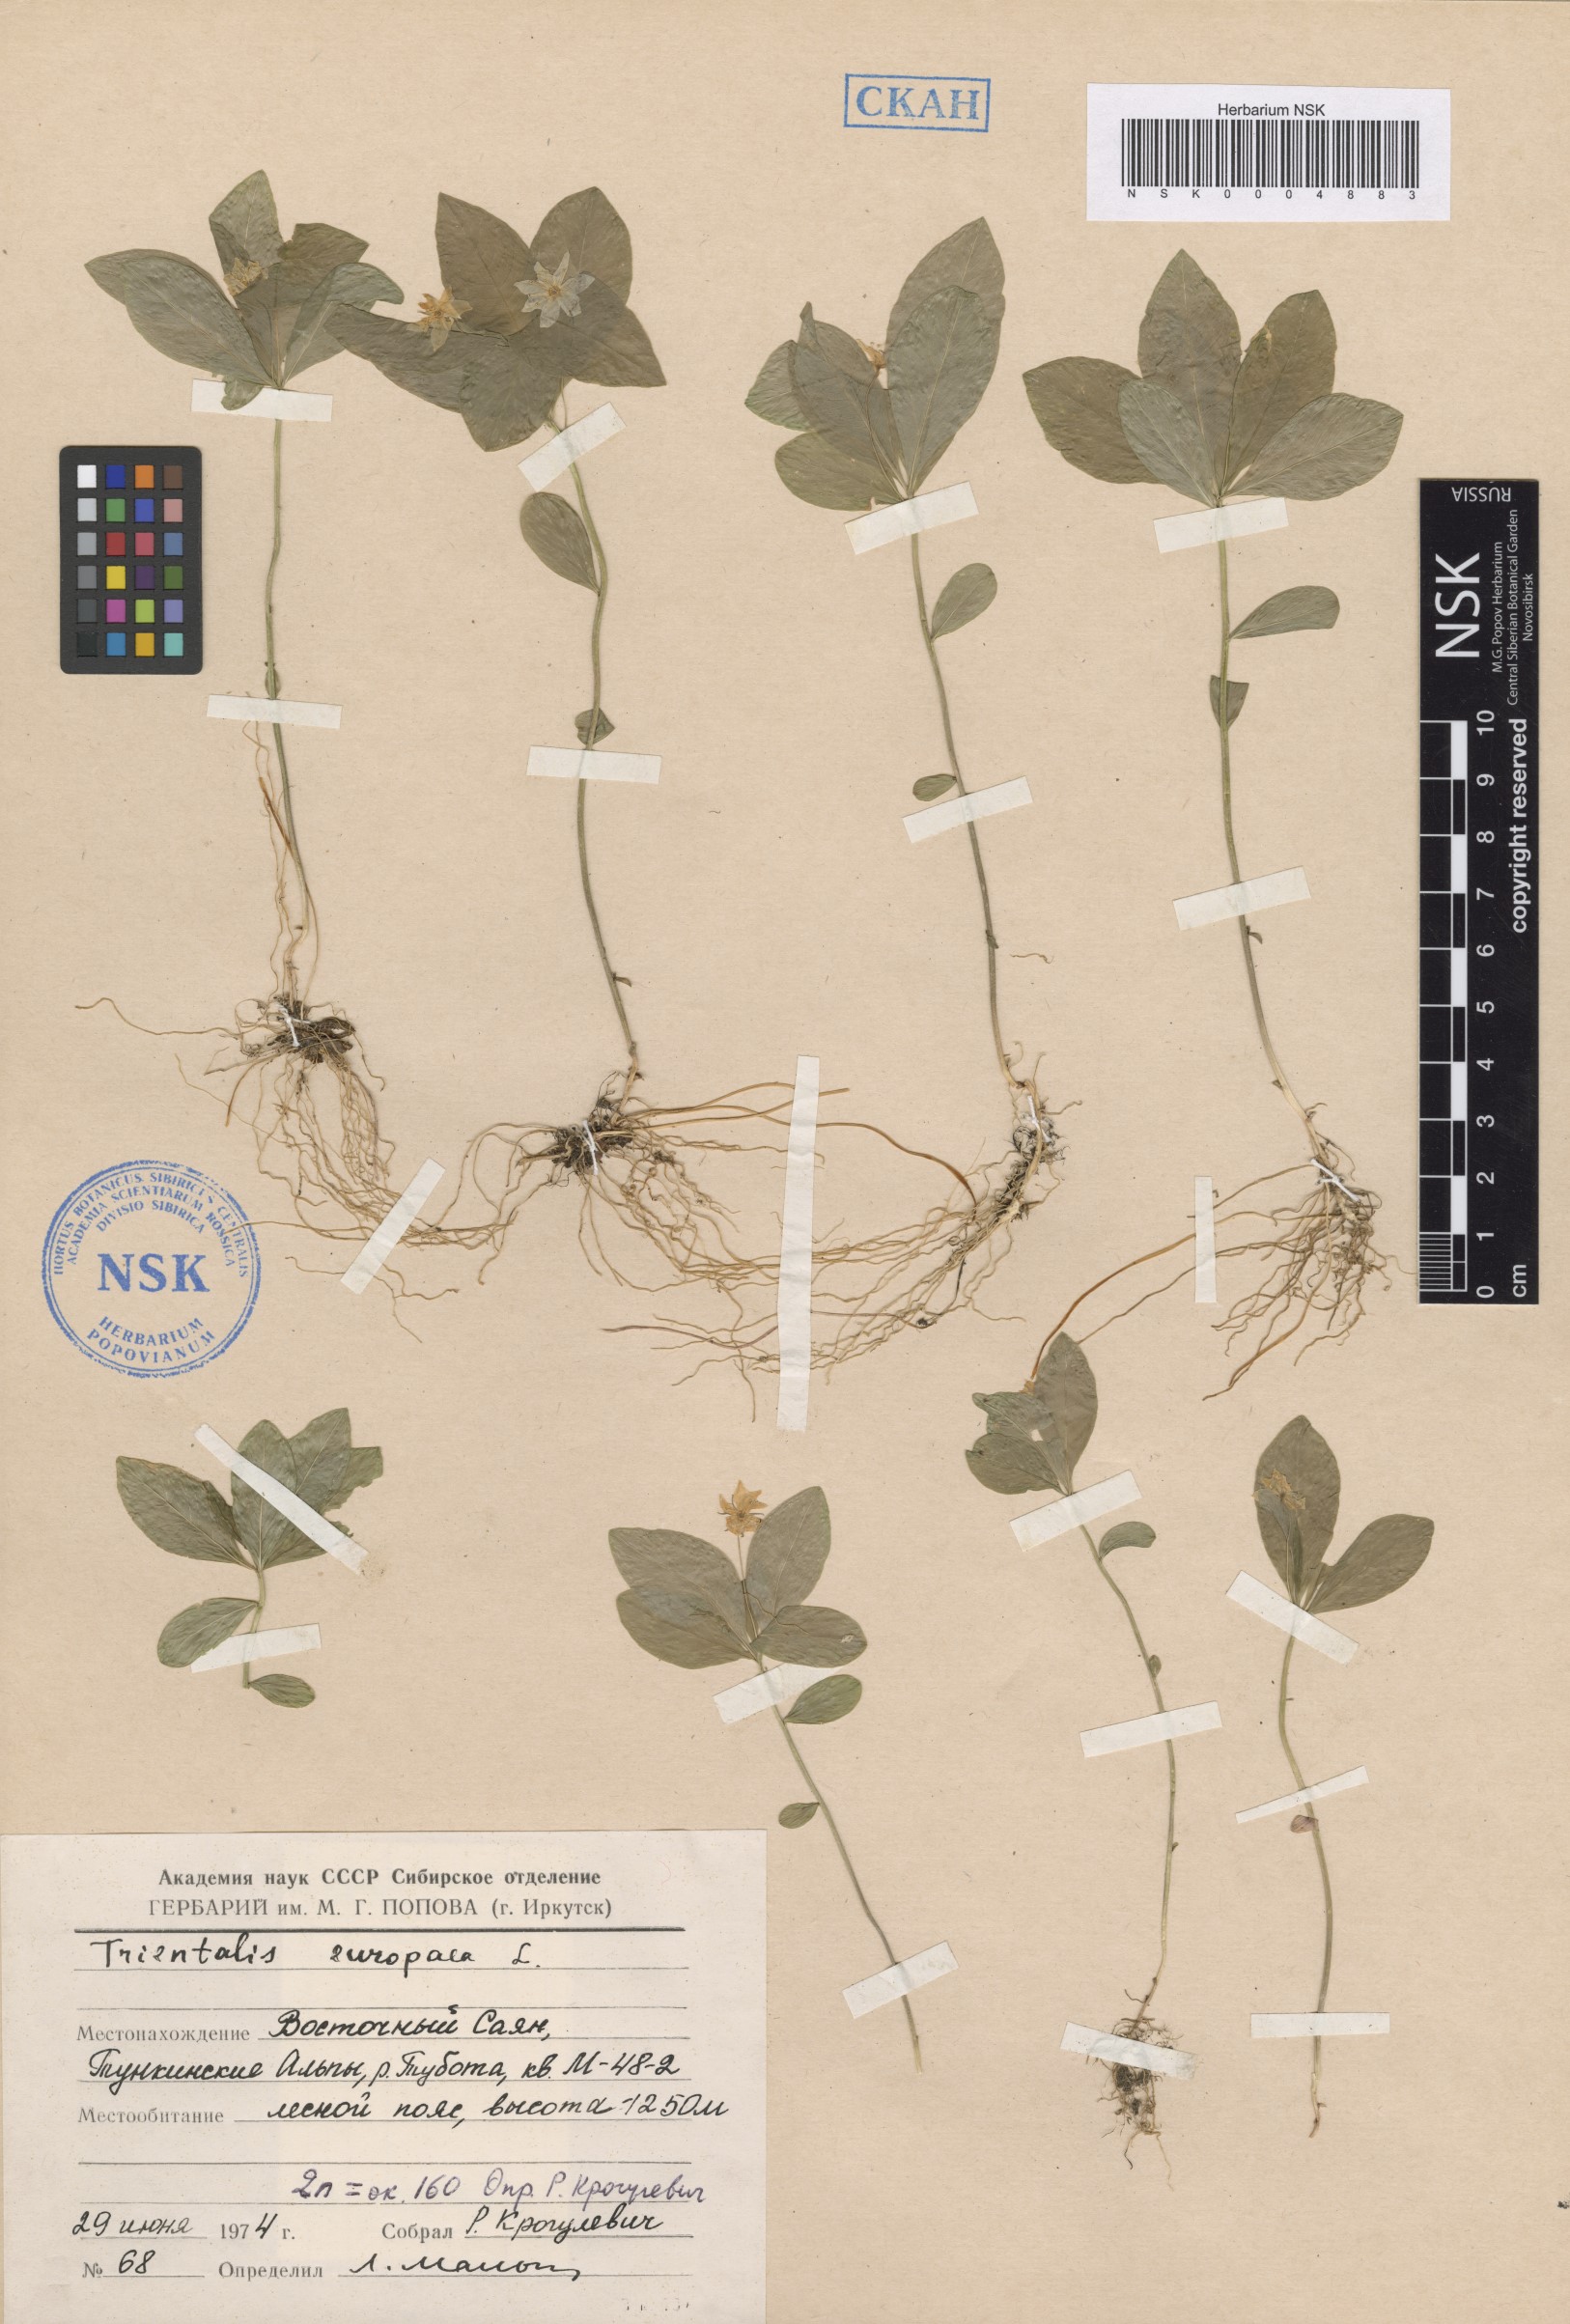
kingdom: Plantae
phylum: Tracheophyta
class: Magnoliopsida
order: Ericales
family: Primulaceae
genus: Lysimachia
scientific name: Lysimachia europaea
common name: Arctic starflower
